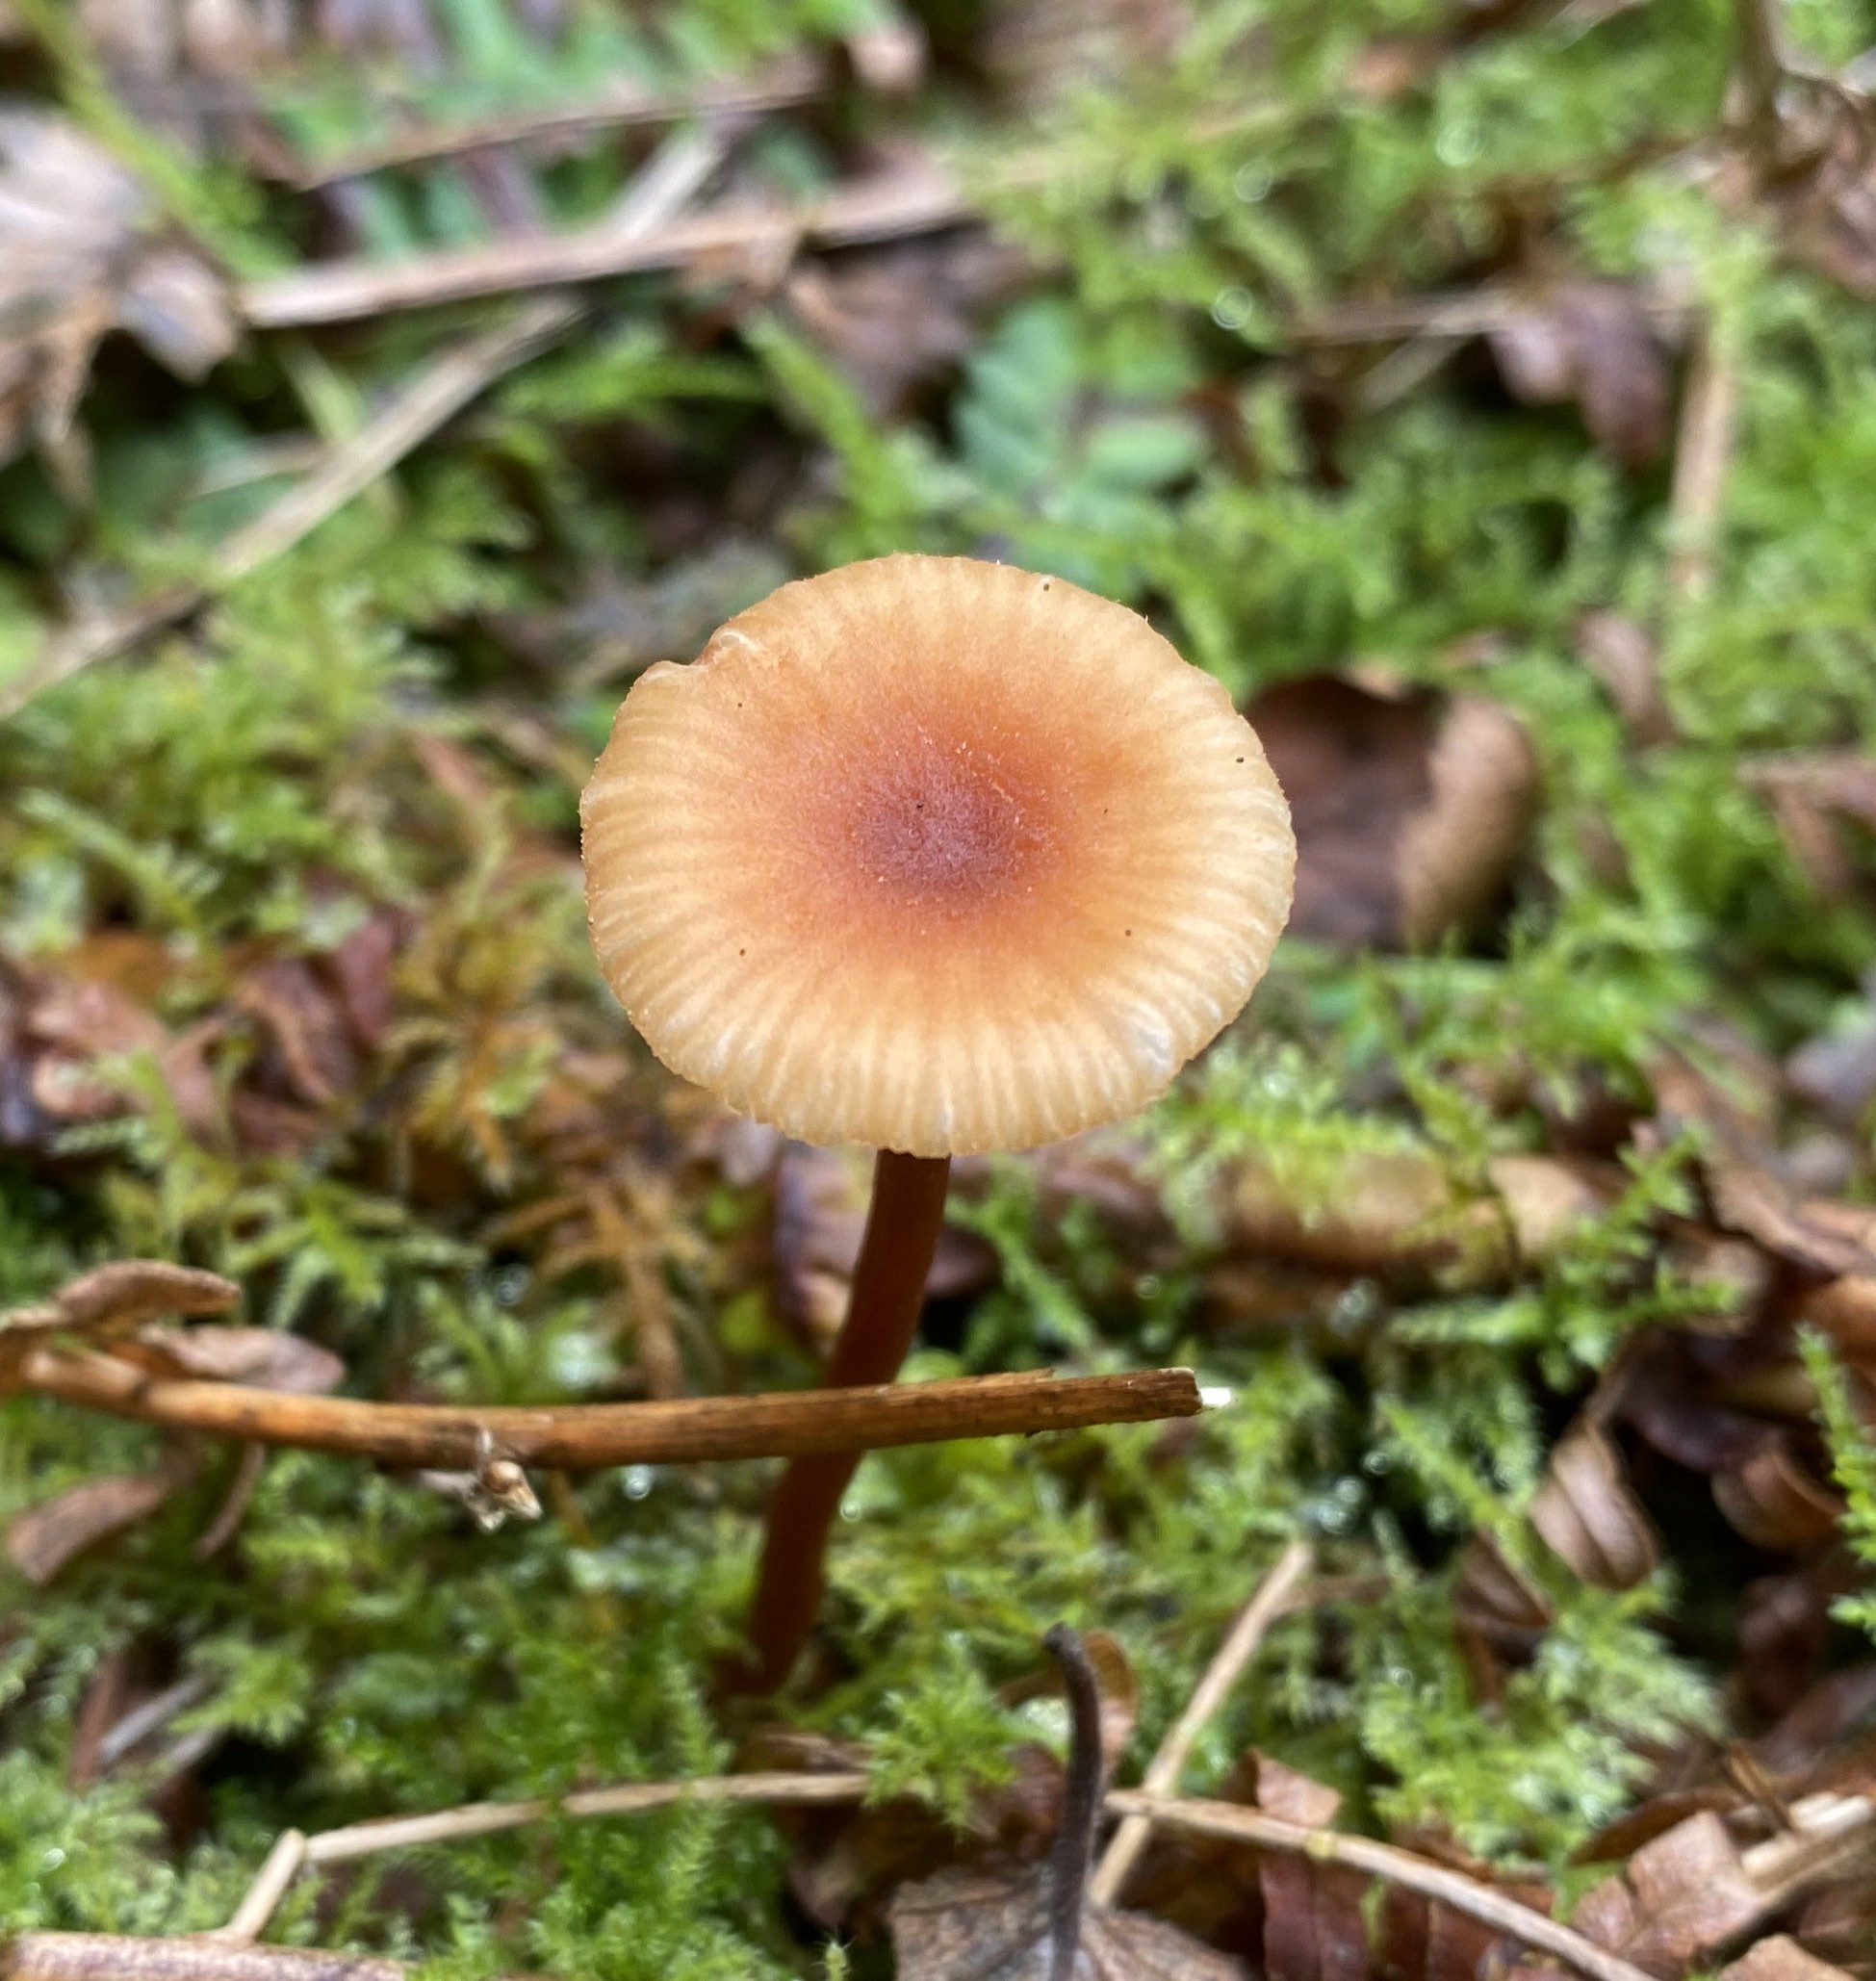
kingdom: Fungi
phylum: Basidiomycota
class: Agaricomycetes
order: Agaricales
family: Hydnangiaceae
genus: Laccaria
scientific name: Laccaria laccata
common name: rød ametysthat
